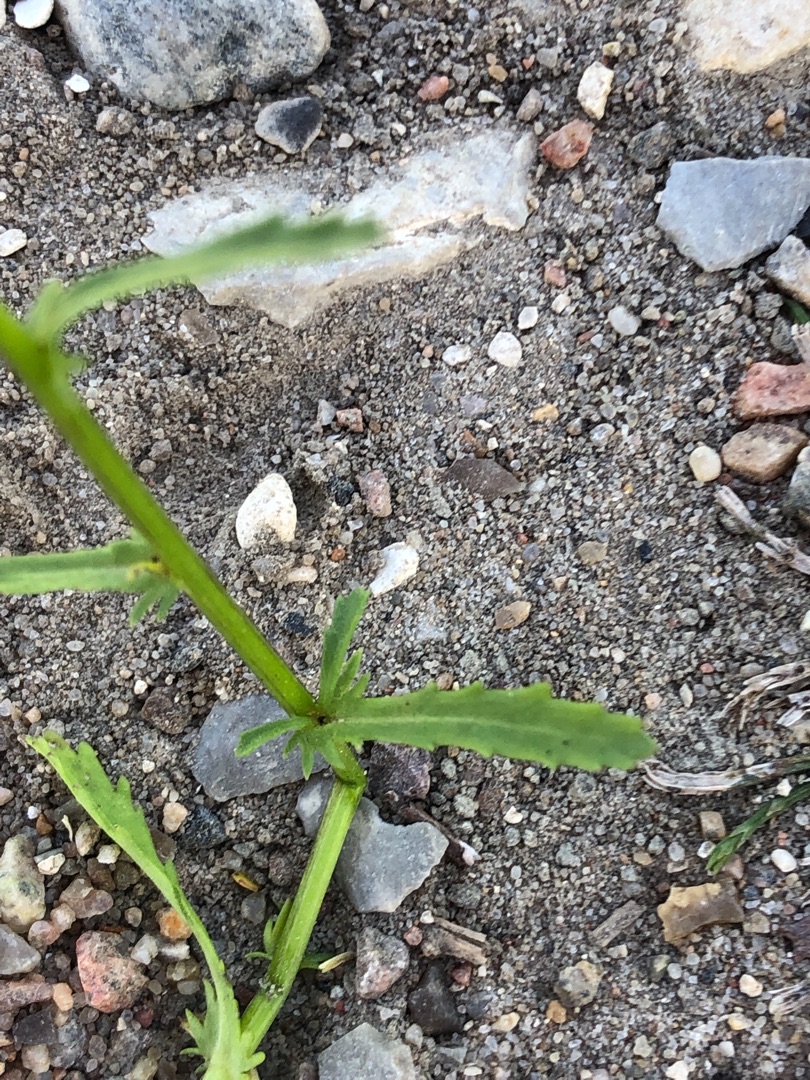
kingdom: Plantae
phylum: Tracheophyta
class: Magnoliopsida
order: Asterales
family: Asteraceae
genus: Leucanthemum
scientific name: Leucanthemum vulgare
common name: Hvid okseøje
